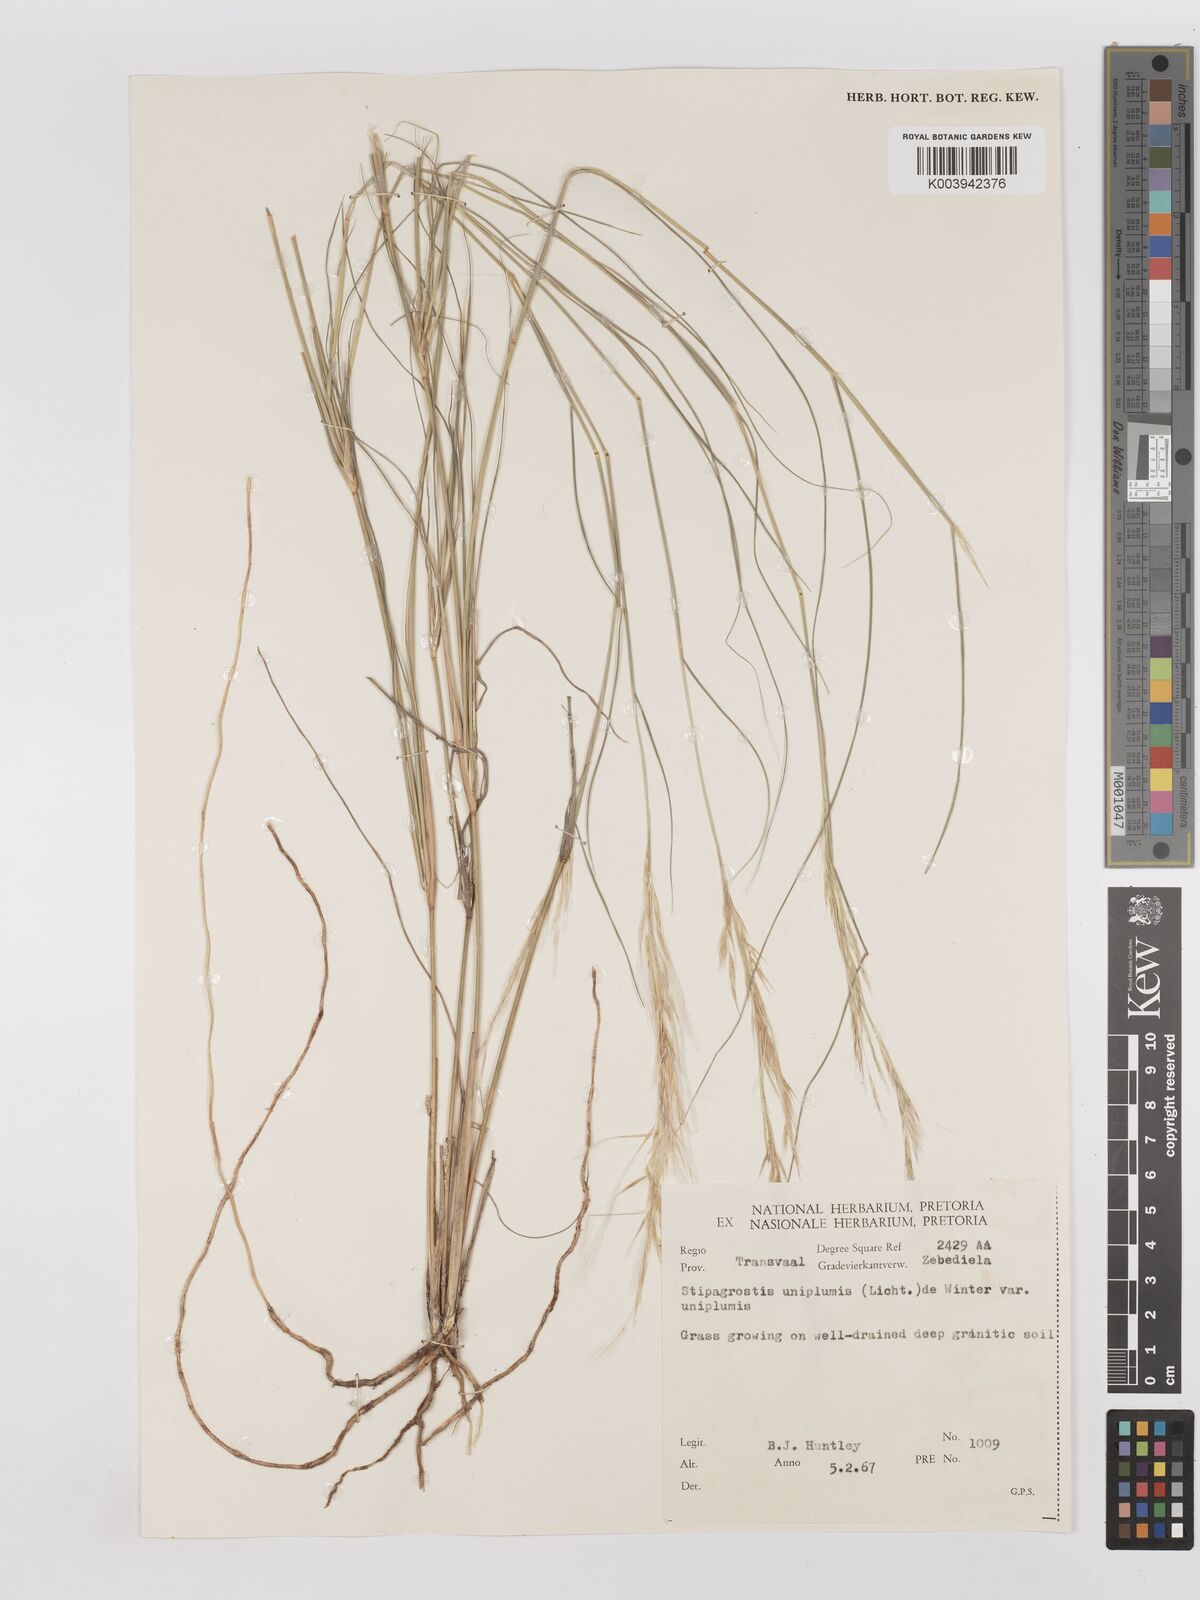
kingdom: Plantae
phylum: Tracheophyta
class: Liliopsida
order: Poales
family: Poaceae
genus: Stipagrostis
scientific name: Stipagrostis uniplumis
